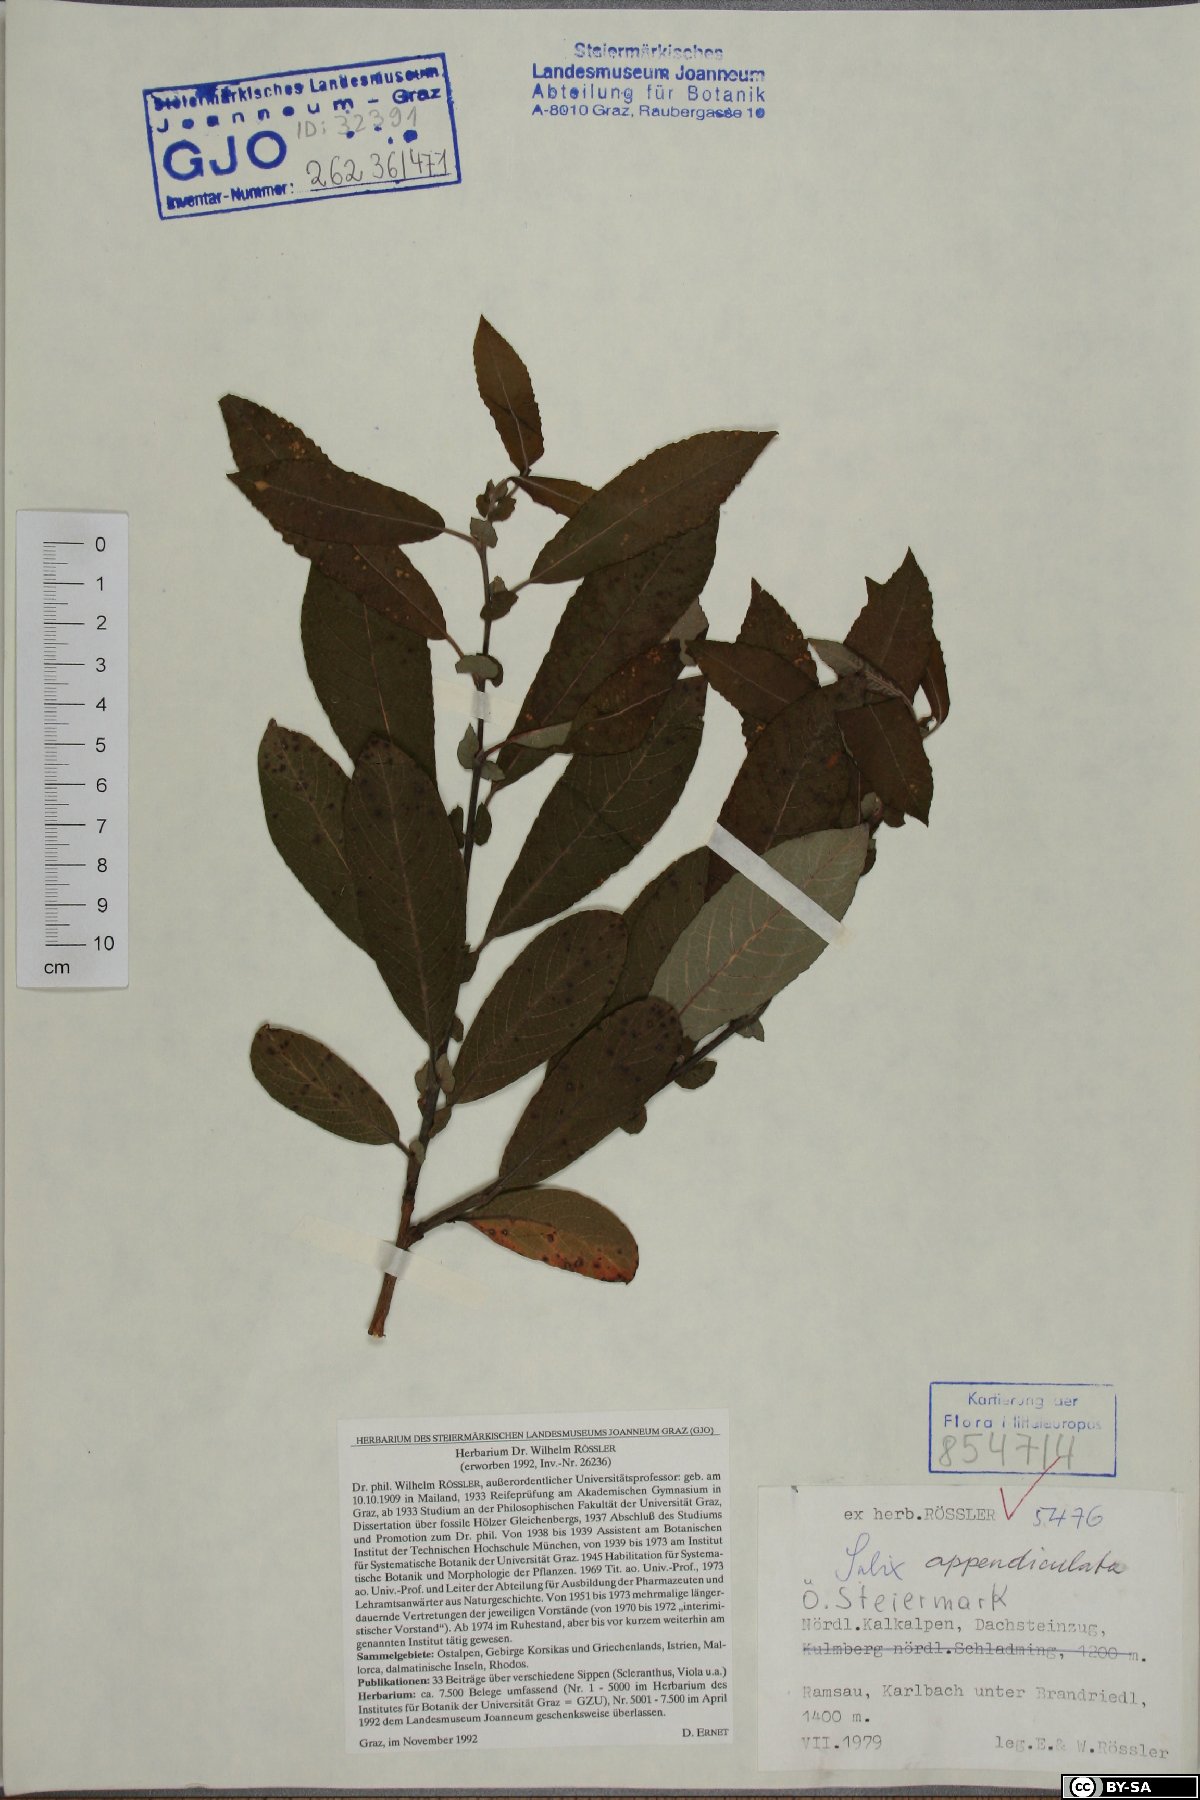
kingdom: Plantae
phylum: Tracheophyta
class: Magnoliopsida
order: Malpighiales
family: Salicaceae
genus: Salix
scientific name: Salix appendiculata
